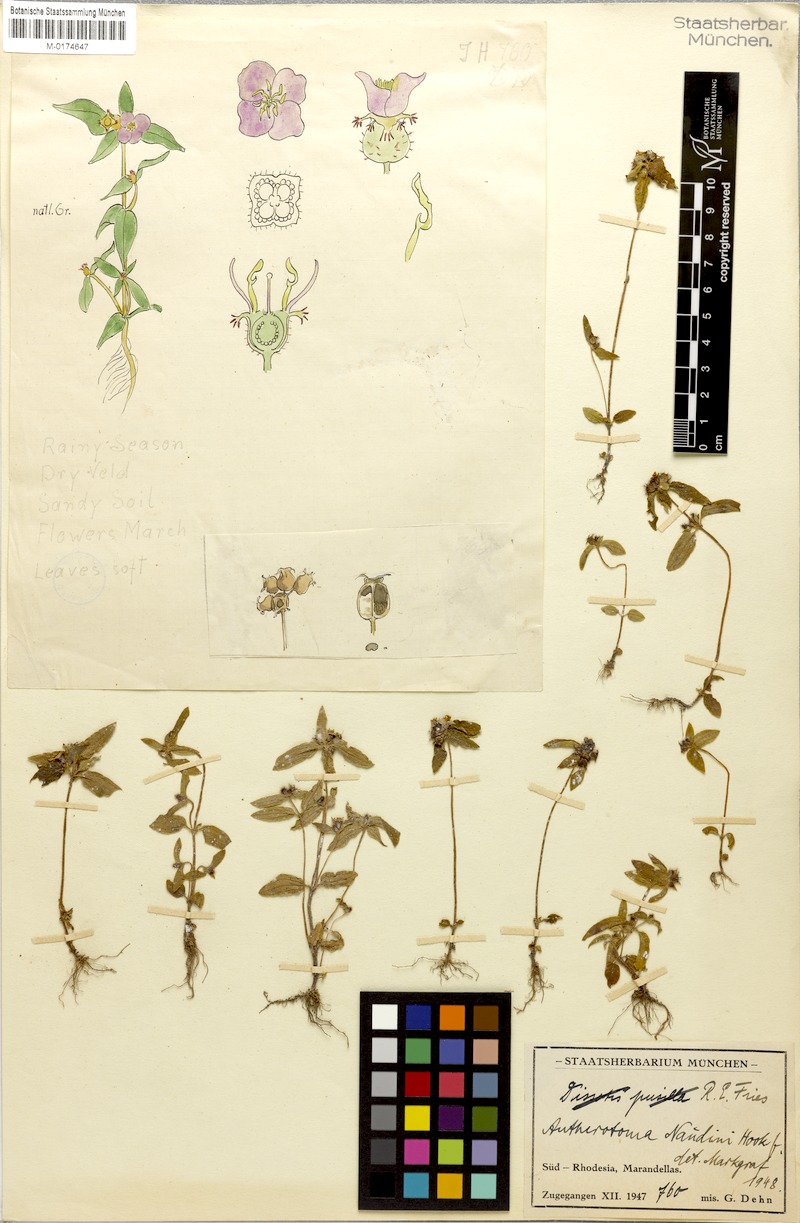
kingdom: Plantae
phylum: Tracheophyta
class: Magnoliopsida
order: Myrtales
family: Melastomataceae
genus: Antherotoma
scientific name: Antherotoma naudinii
